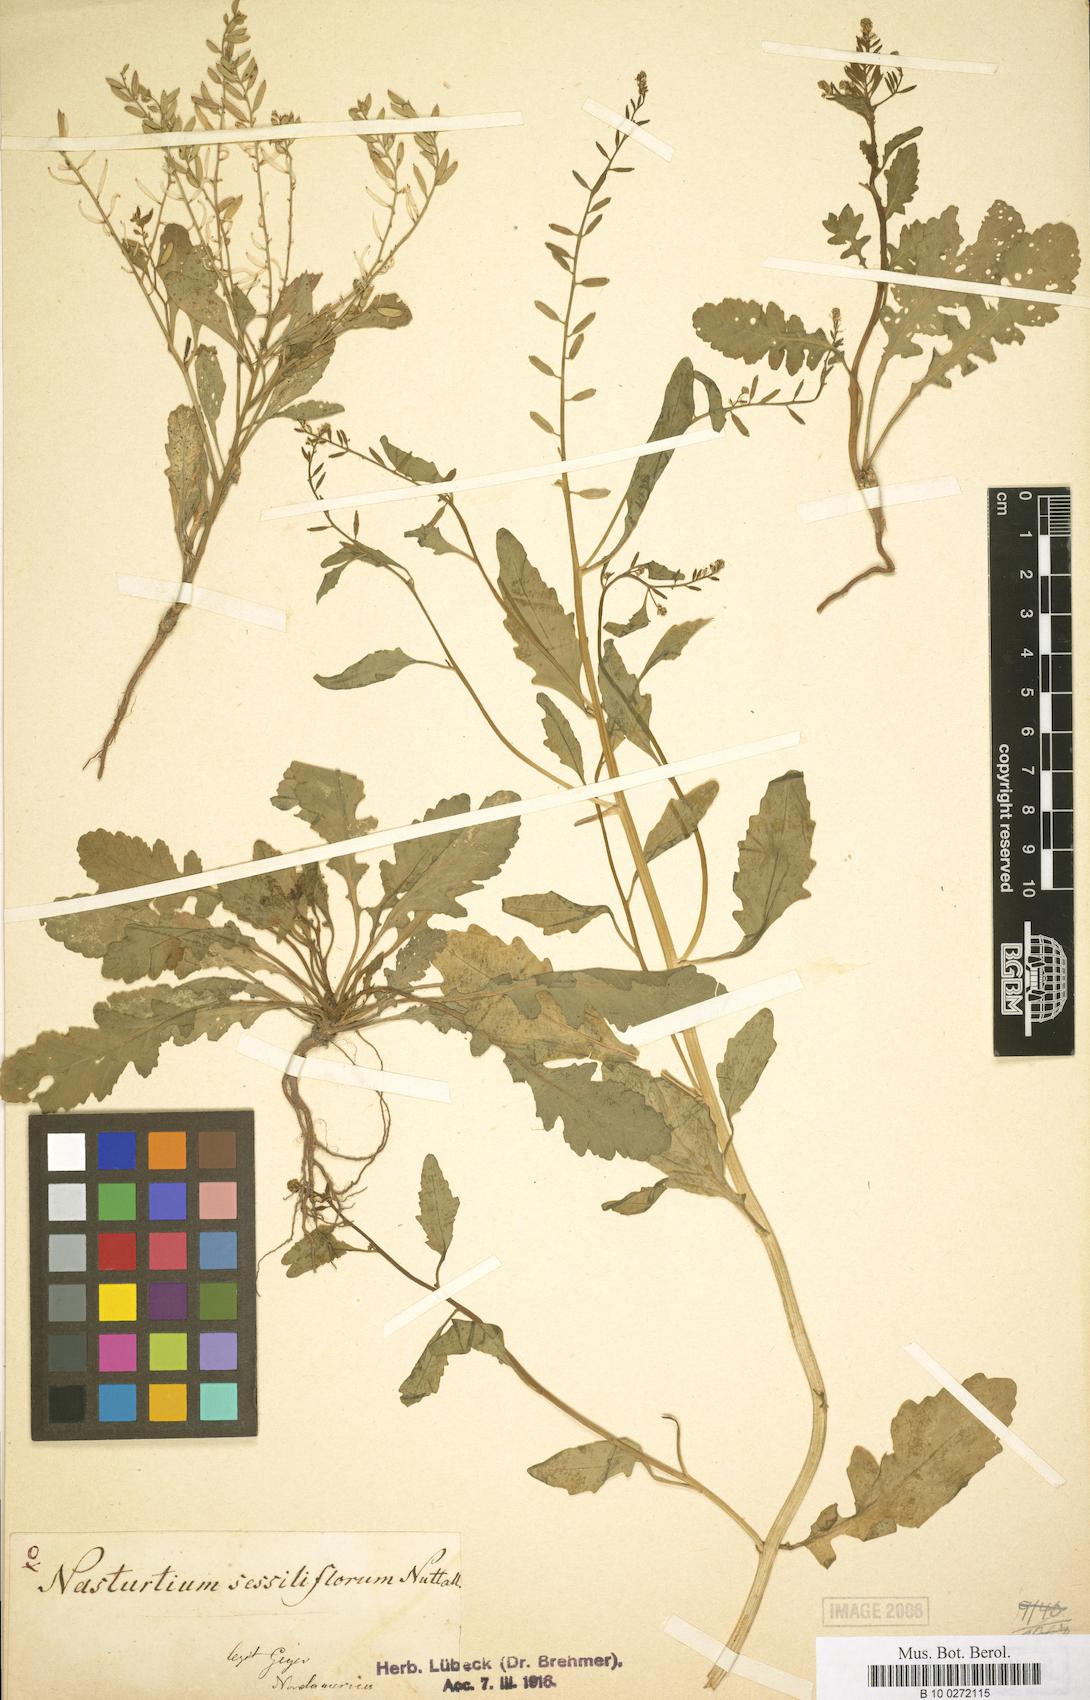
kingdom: Plantae
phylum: Tracheophyta
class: Magnoliopsida
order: Brassicales
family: Brassicaceae
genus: Rorippa
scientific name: Rorippa sessiliflora
